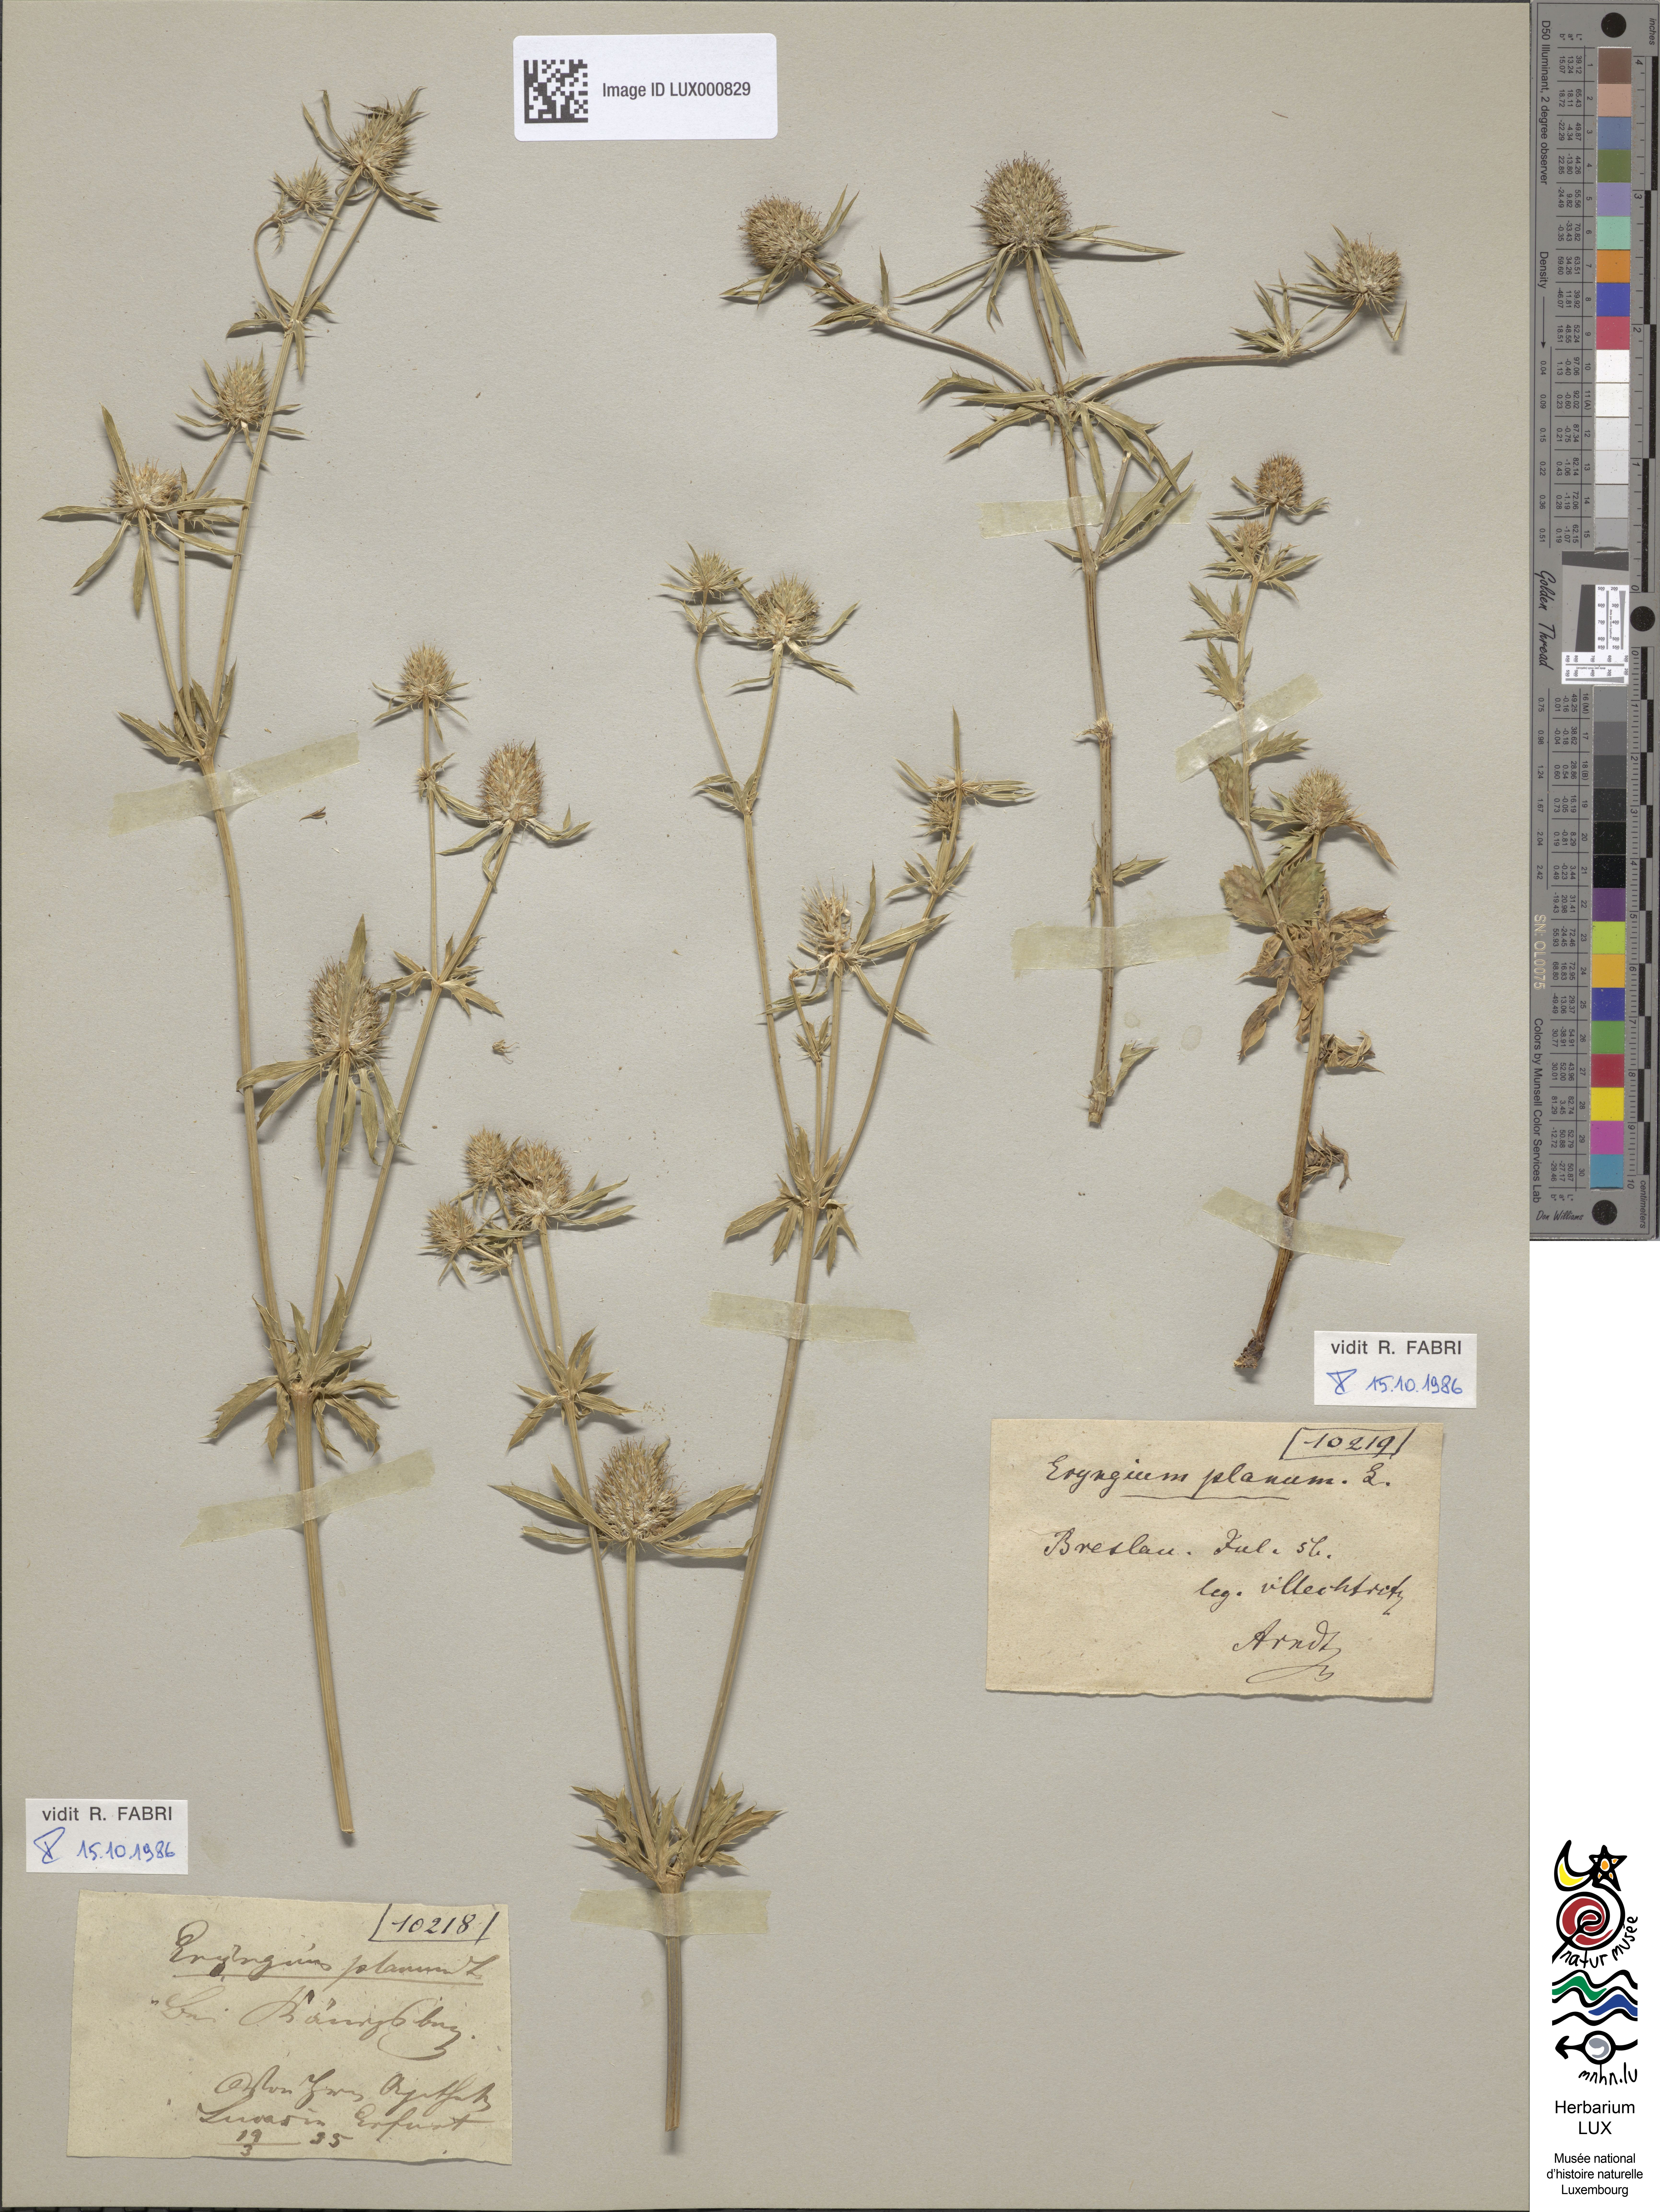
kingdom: Plantae
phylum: Tracheophyta
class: Magnoliopsida
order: Apiales
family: Apiaceae
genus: Eryngium
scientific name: Eryngium planum
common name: Blue eryngo
